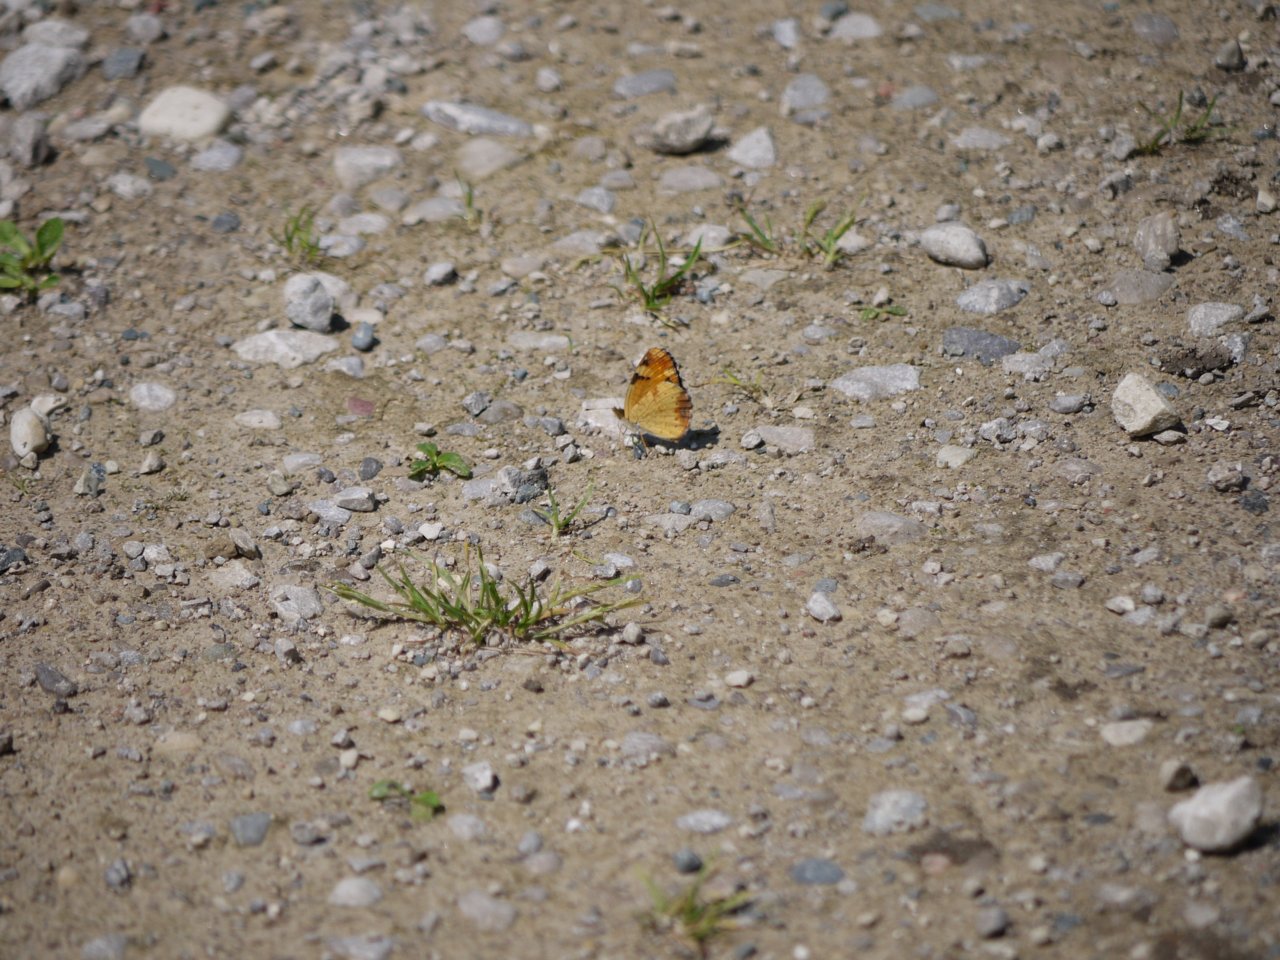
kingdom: Animalia
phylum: Arthropoda
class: Insecta
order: Lepidoptera
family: Nymphalidae
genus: Phyciodes
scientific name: Phyciodes tharos
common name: Northern Crescent
